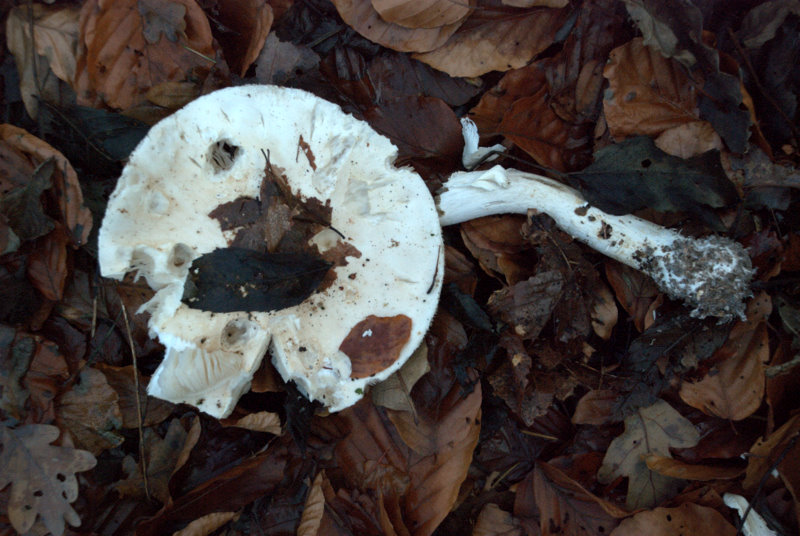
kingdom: Fungi
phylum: Basidiomycota
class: Agaricomycetes
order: Agaricales
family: Amanitaceae
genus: Limacellopsis
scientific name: Limacellopsis guttata
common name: tåre-snekkehat
